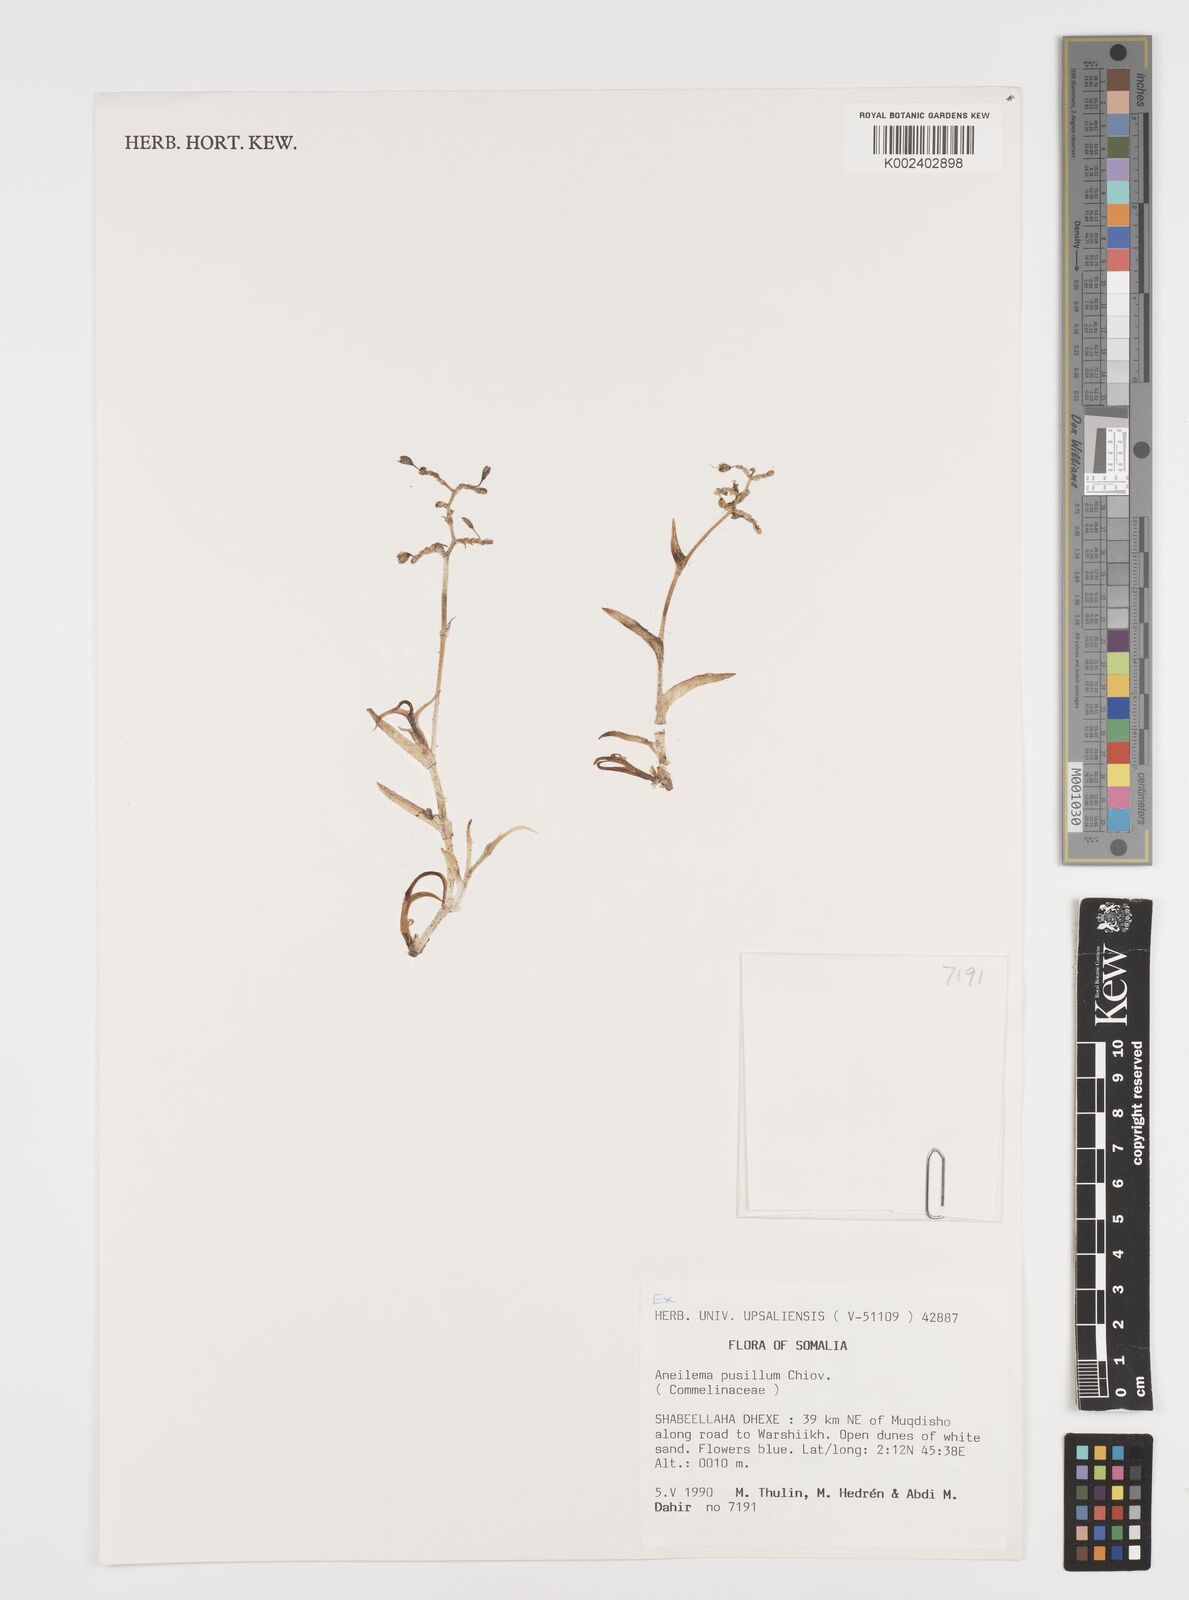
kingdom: Plantae
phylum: Tracheophyta
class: Liliopsida
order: Commelinales
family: Commelinaceae
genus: Aneilema
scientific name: Aneilema pusillum
